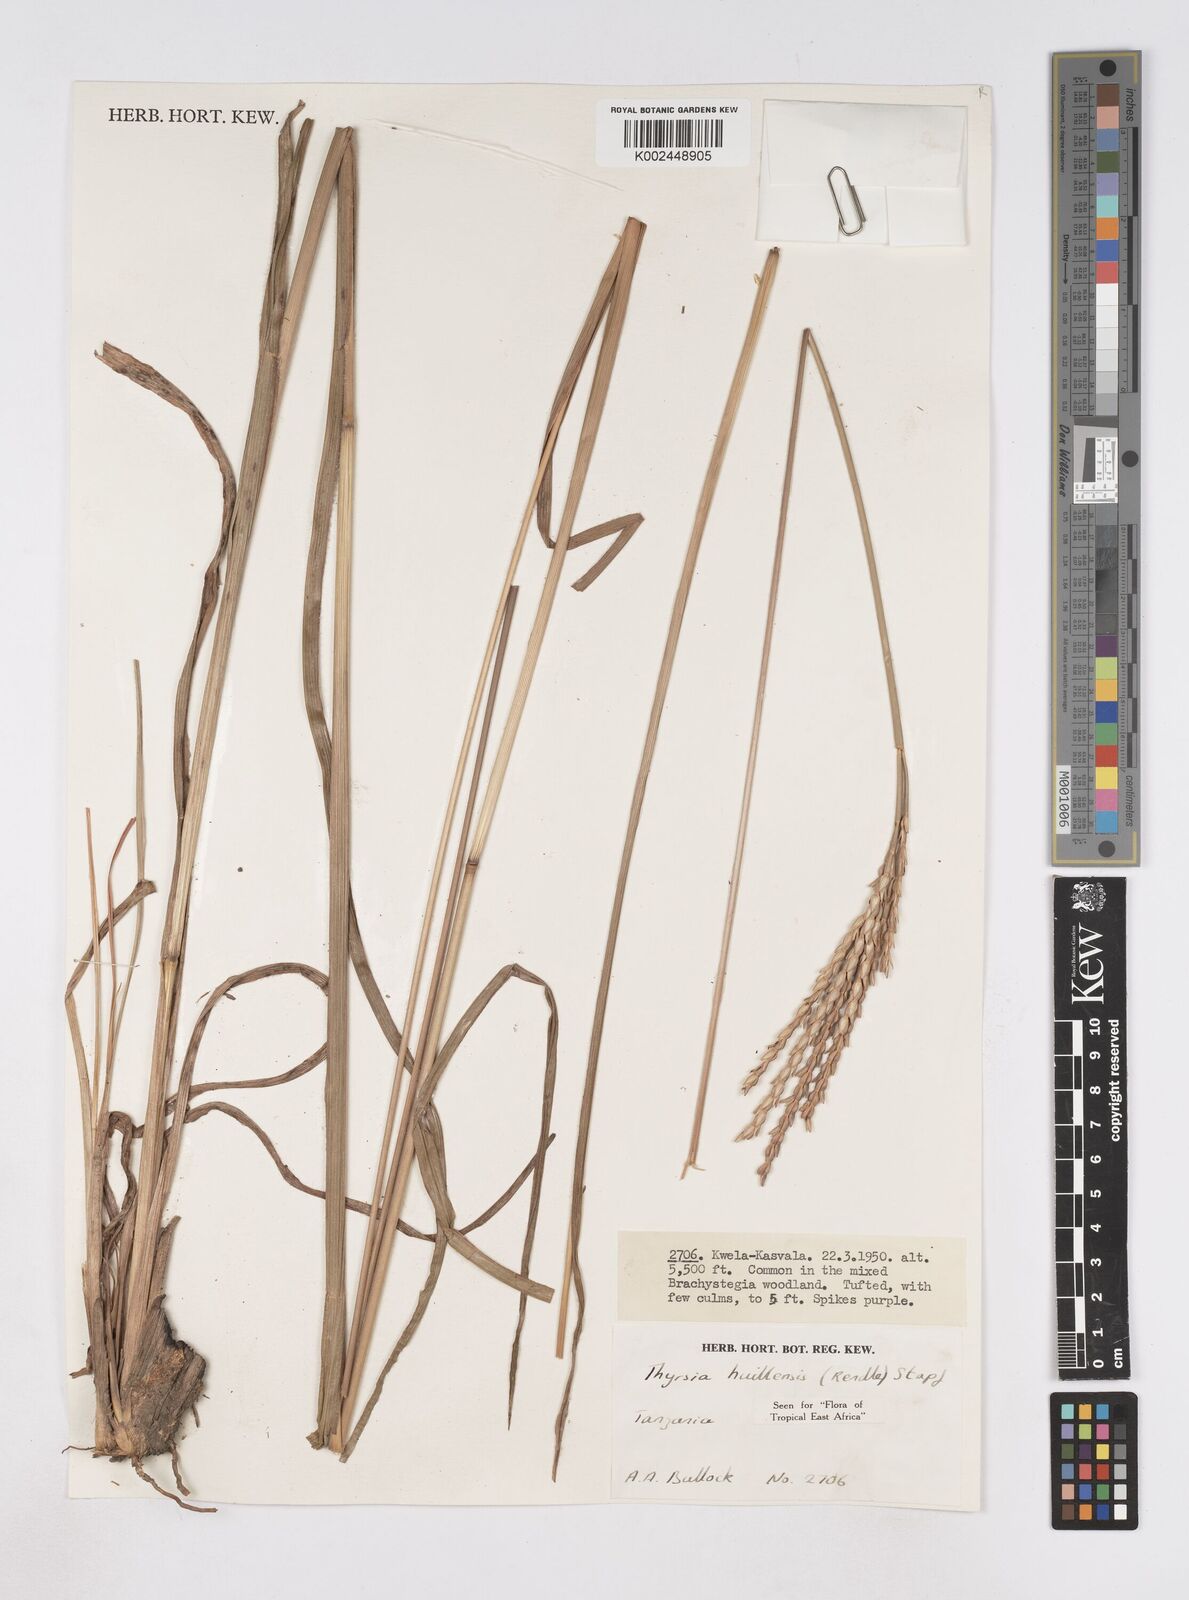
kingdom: Plantae
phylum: Tracheophyta
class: Liliopsida
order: Poales
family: Poaceae
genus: Thyrsia
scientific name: Thyrsia huillensis
